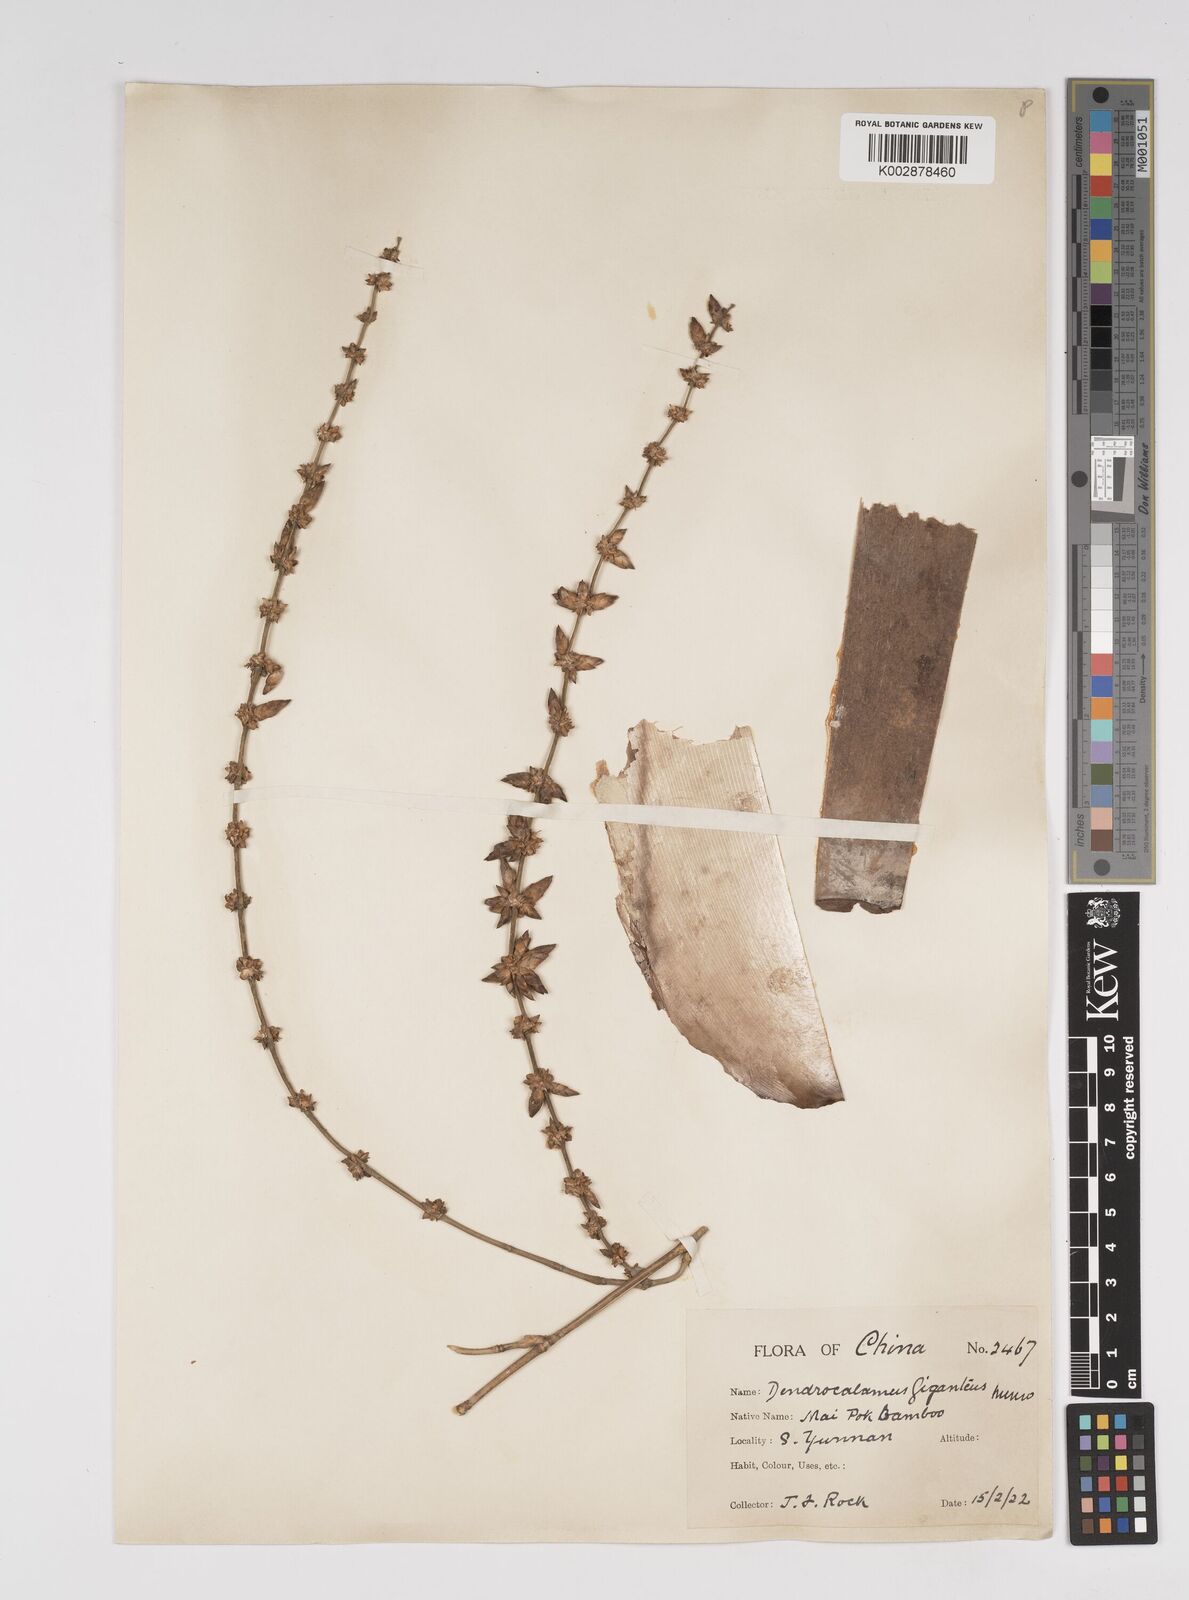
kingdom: Plantae
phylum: Tracheophyta
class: Liliopsida
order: Poales
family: Poaceae
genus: Dendrocalamus
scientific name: Dendrocalamus giganteus
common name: Giant bamboo
